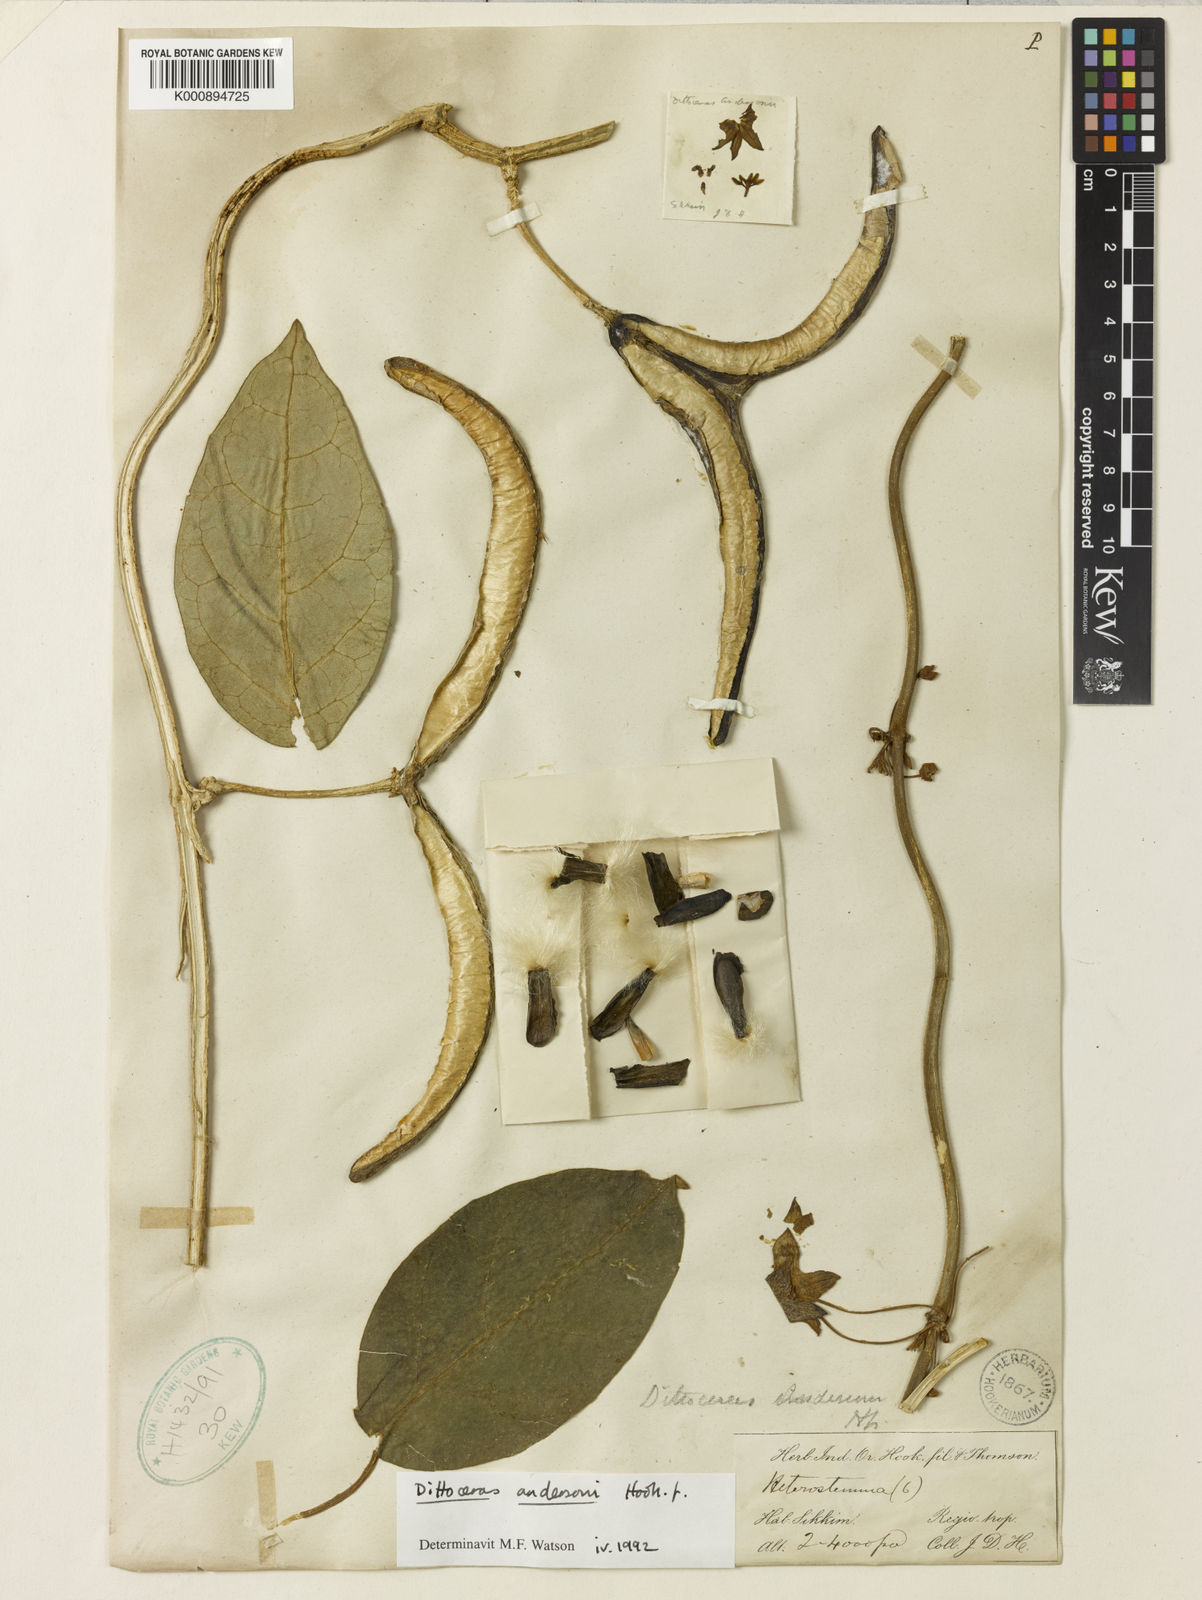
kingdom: Plantae
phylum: Tracheophyta
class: Magnoliopsida
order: Gentianales
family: Apocynaceae
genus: Heterostemma
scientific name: Heterostemma andersonii
